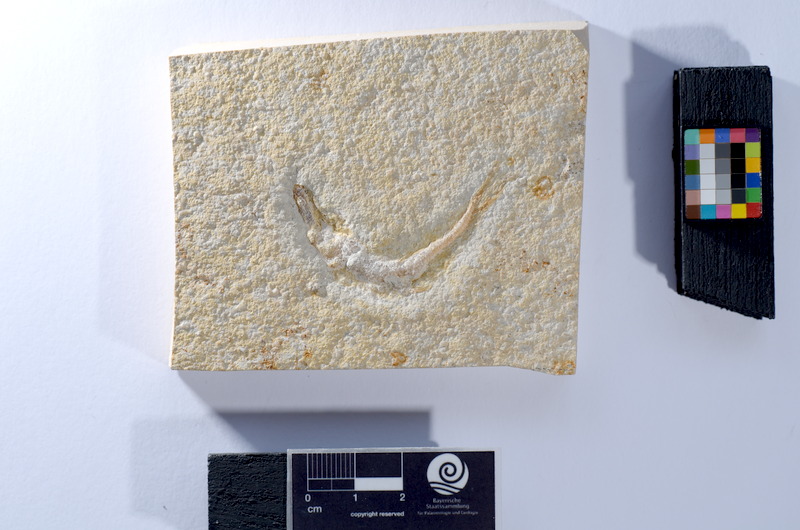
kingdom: Animalia
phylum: Chordata
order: Salmoniformes
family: Orthogonikleithridae
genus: Leptolepides
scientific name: Leptolepides
